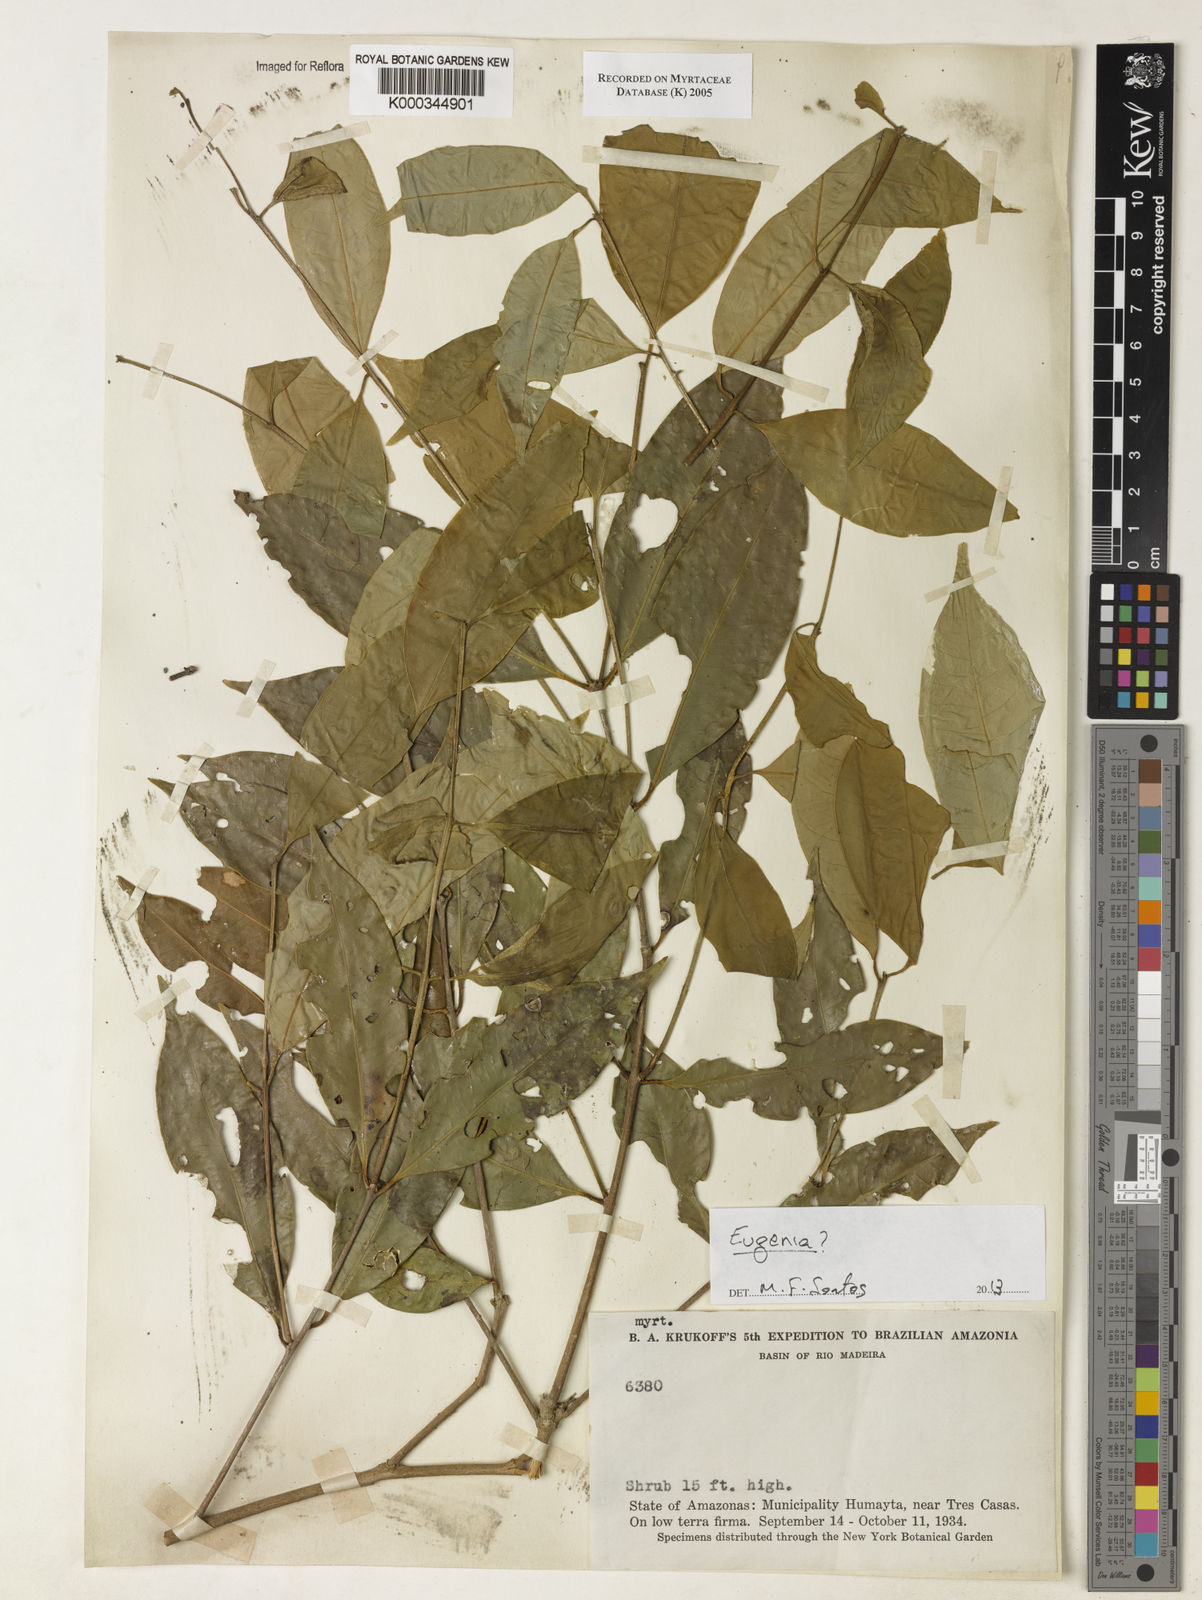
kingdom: Plantae
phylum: Tracheophyta
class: Magnoliopsida
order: Myrtales
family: Myrtaceae
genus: Myrcia
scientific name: Myrcia
